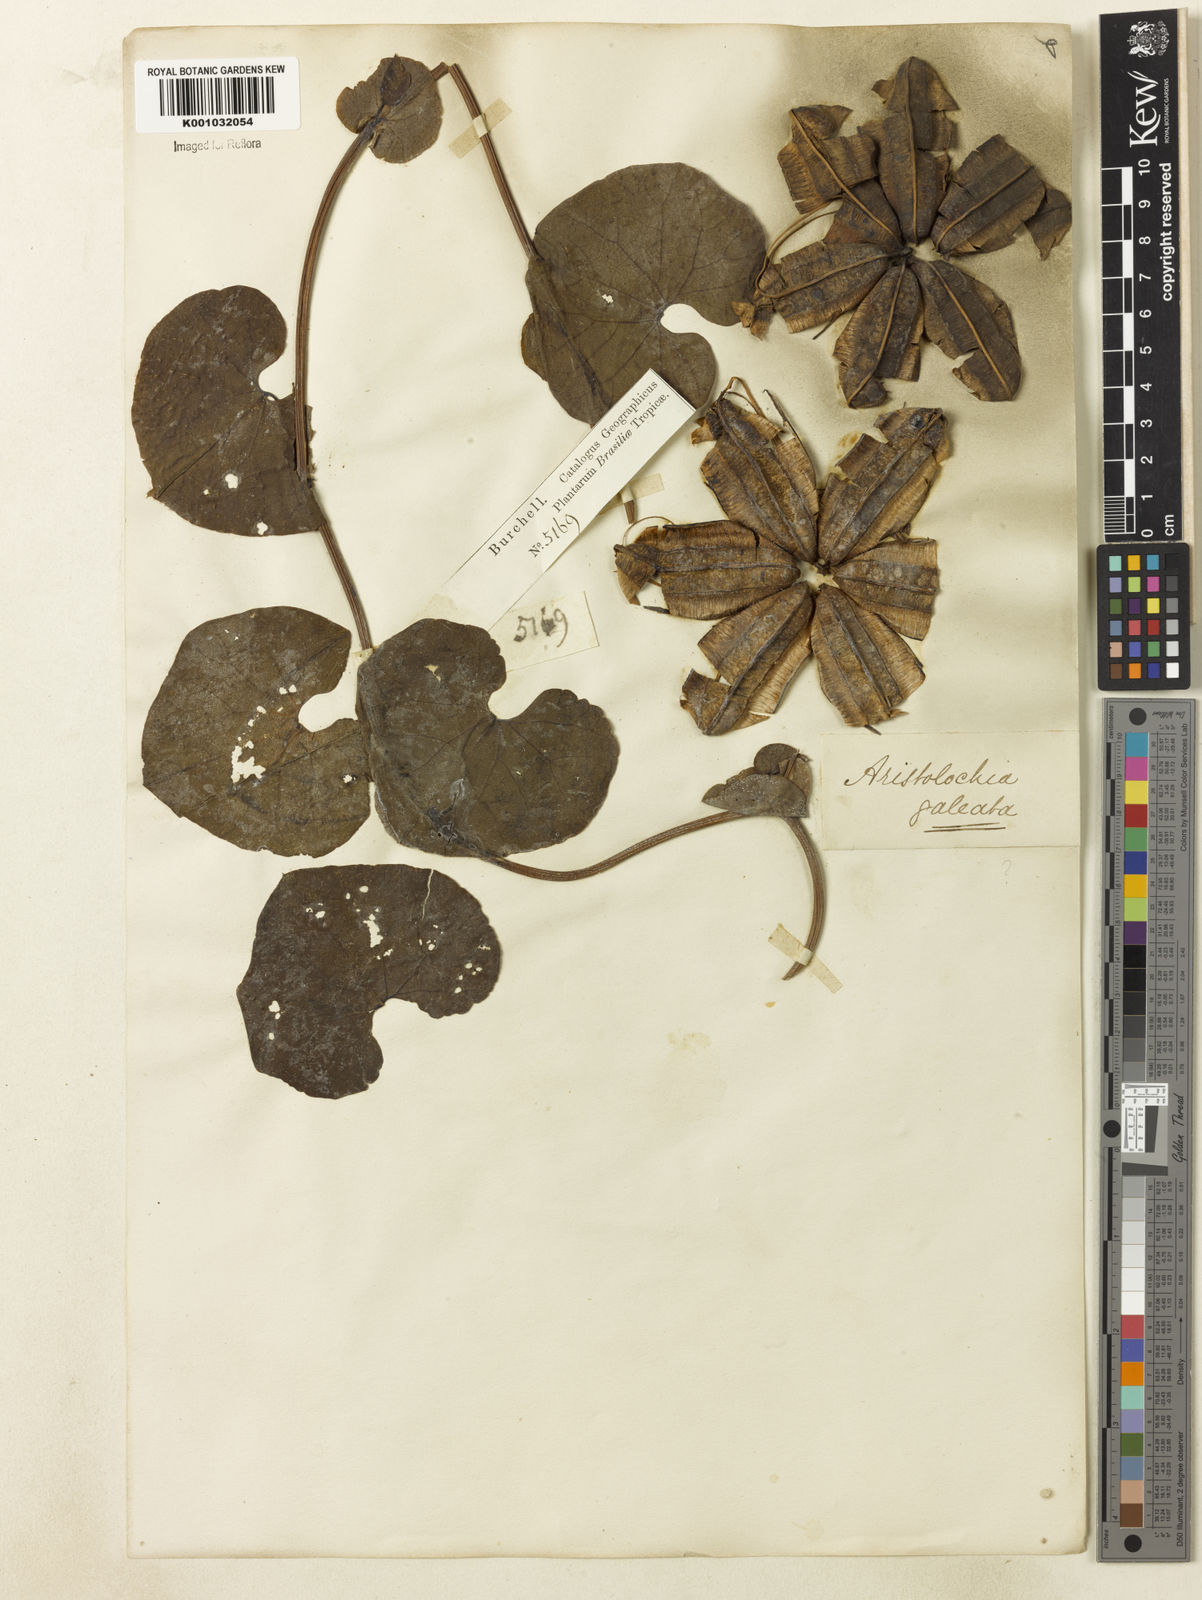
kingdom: Plantae
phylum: Tracheophyta
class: Magnoliopsida
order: Piperales
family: Aristolochiaceae
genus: Aristolochia
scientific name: Aristolochia
